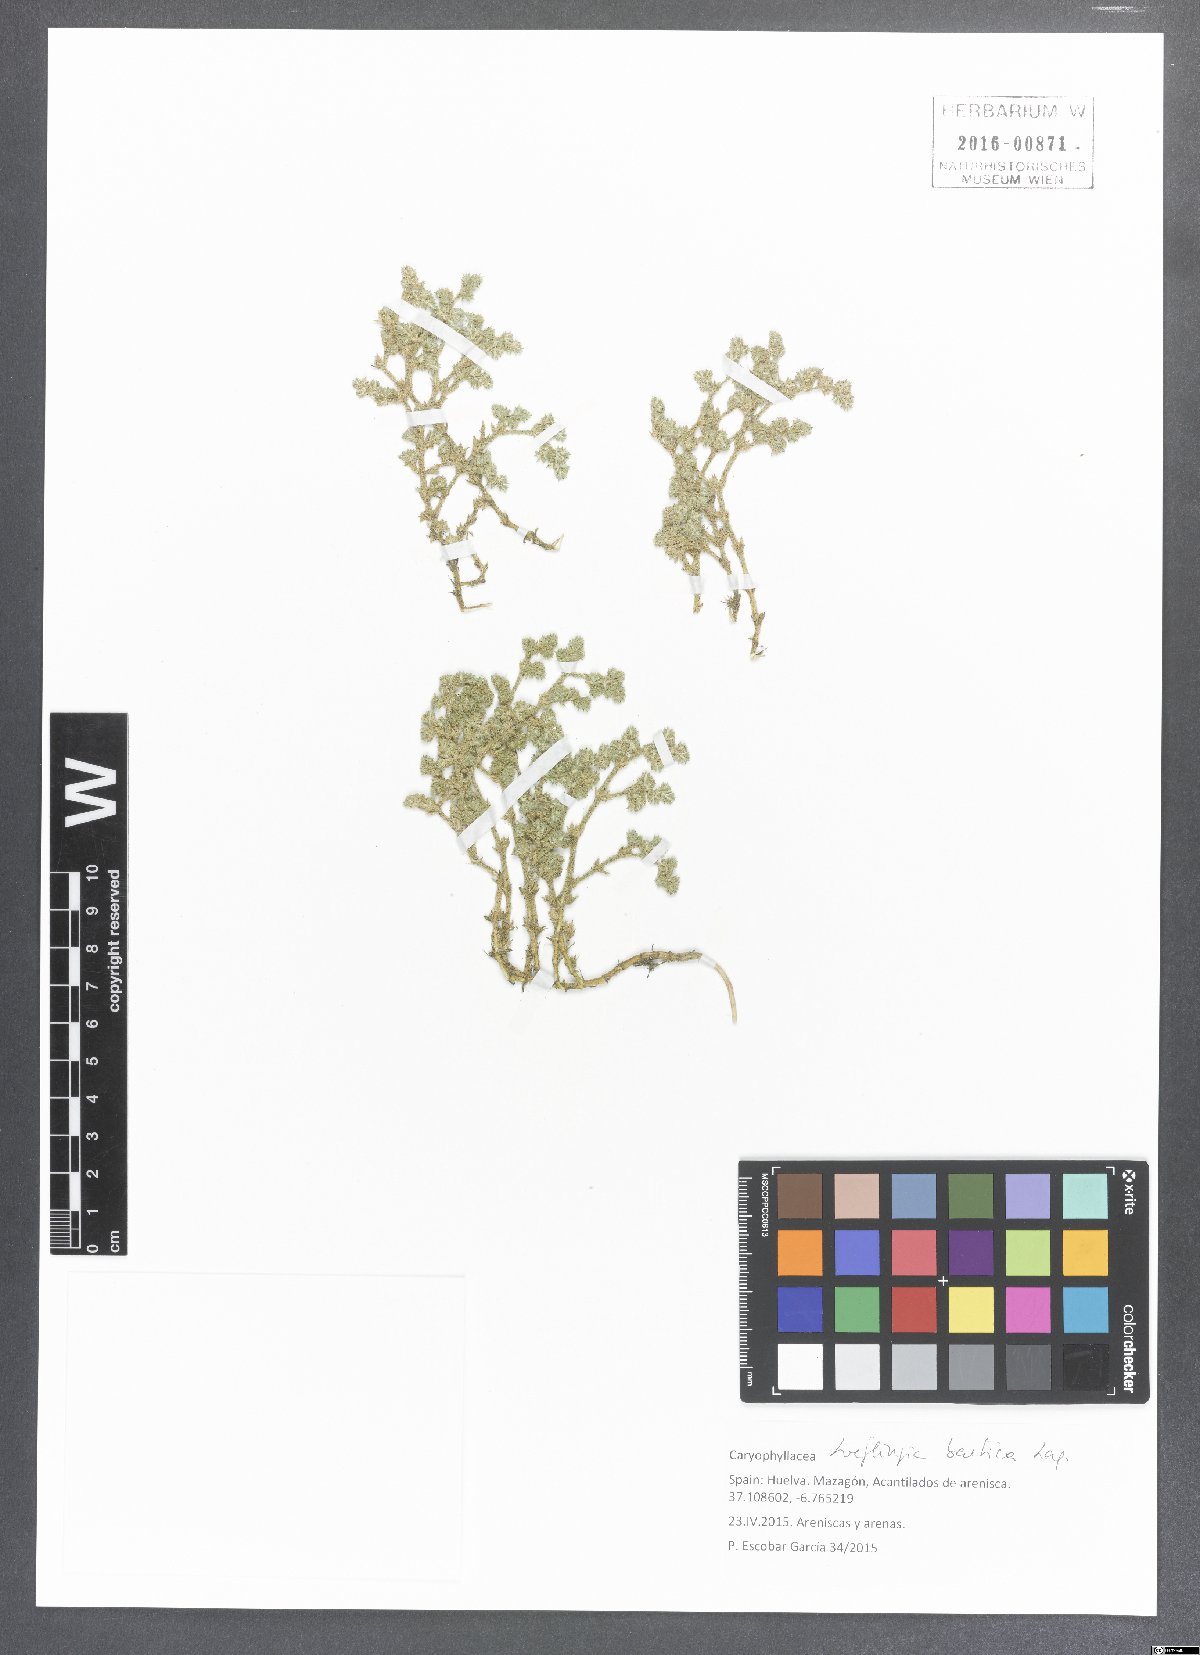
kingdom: Plantae
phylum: Tracheophyta
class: Magnoliopsida
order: Caryophyllales
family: Caryophyllaceae
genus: Loeflingia
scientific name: Loeflingia baetica
